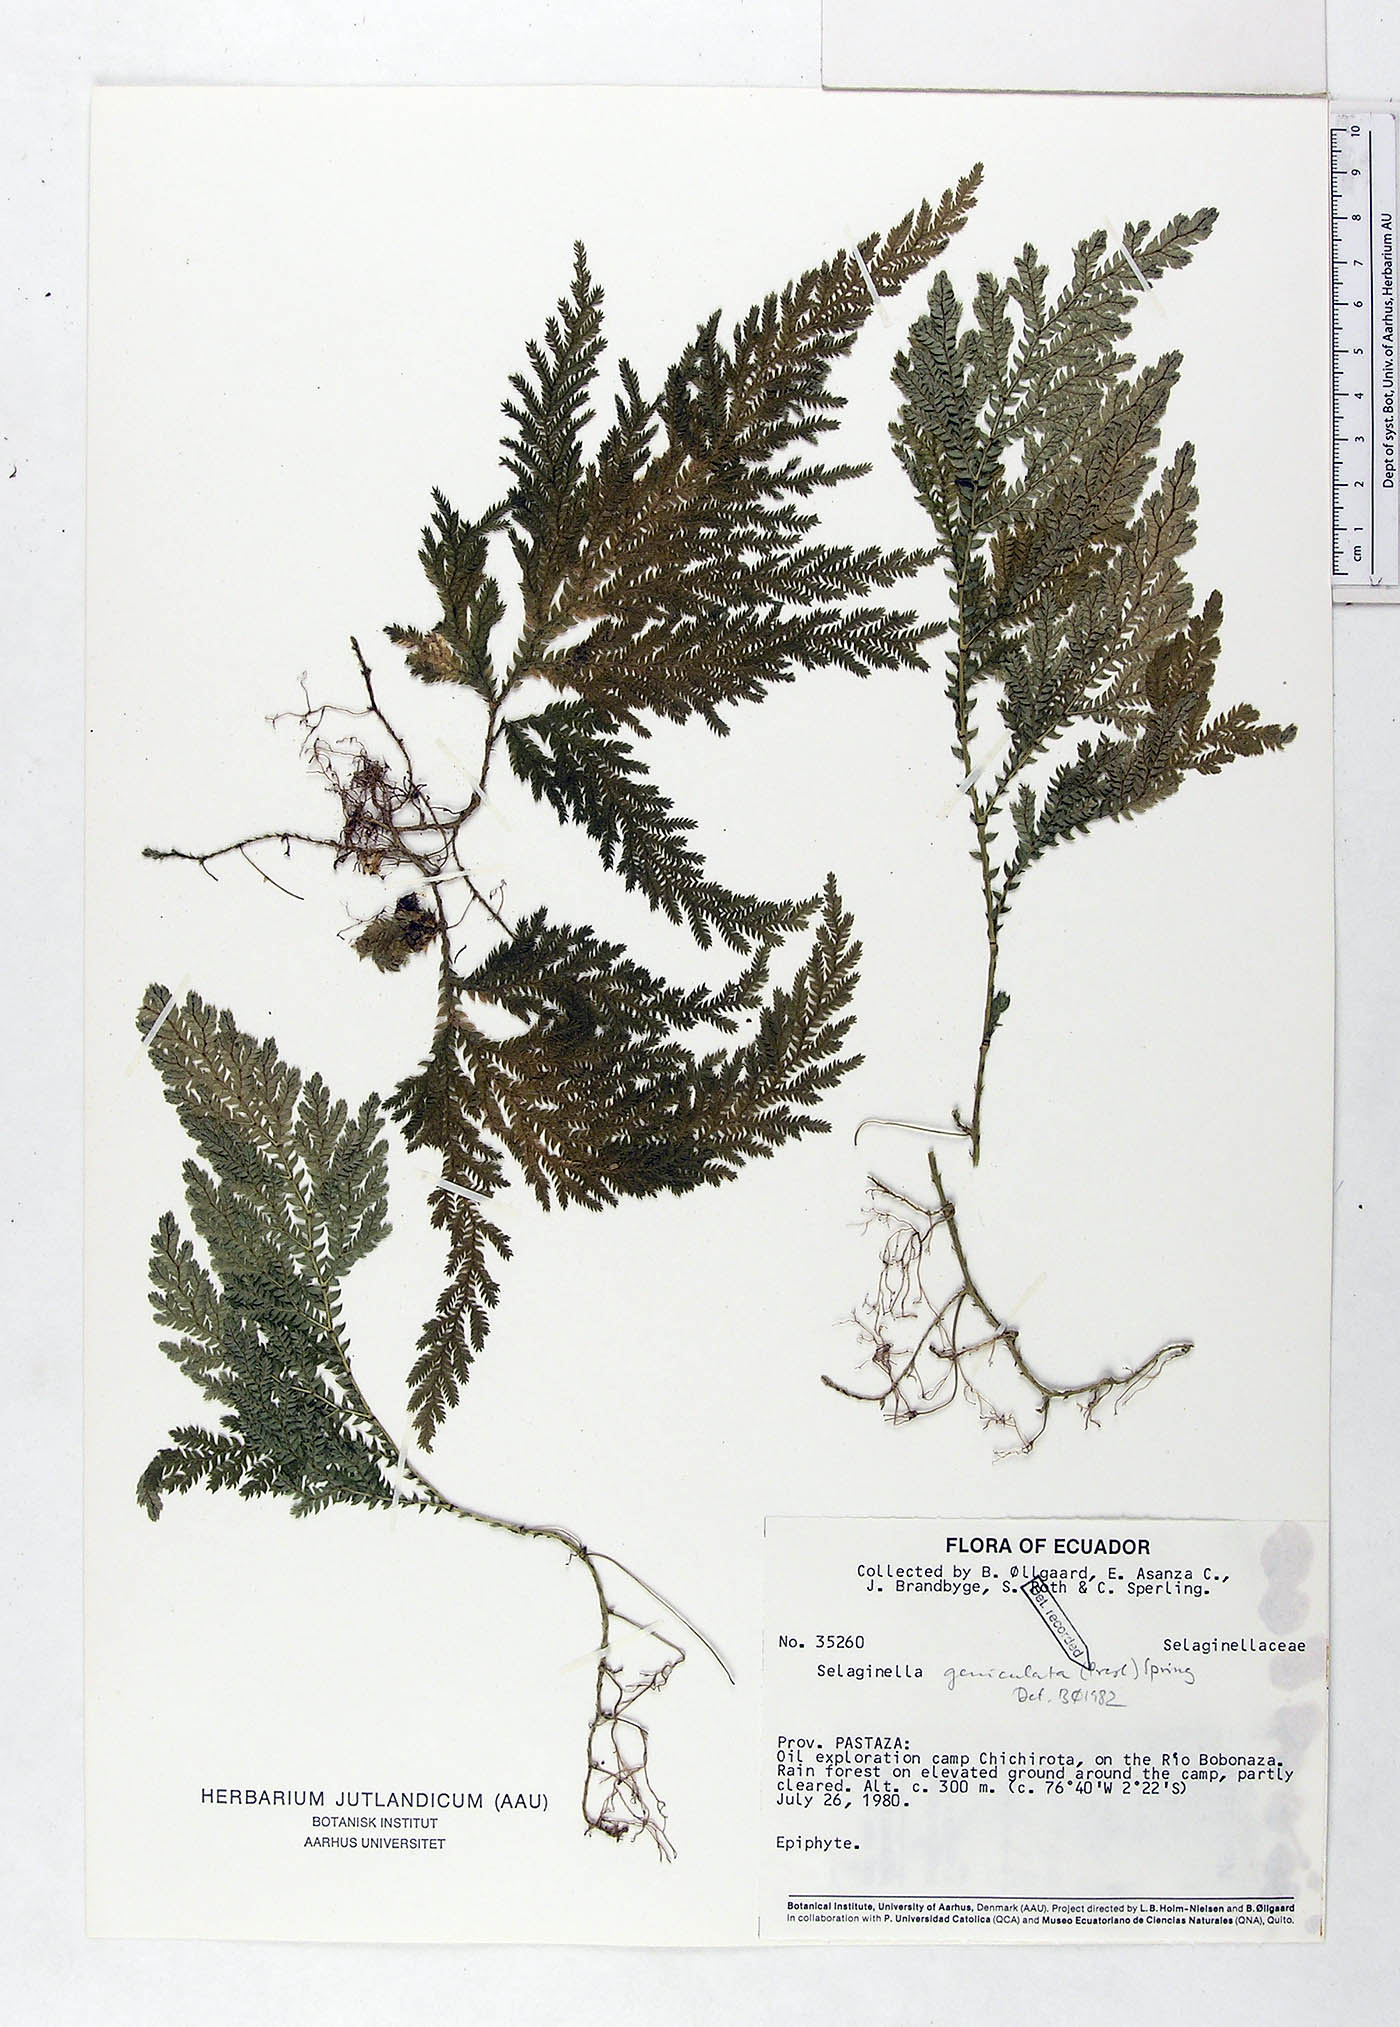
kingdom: Plantae
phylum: Tracheophyta
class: Lycopodiopsida
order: Selaginellales
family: Selaginellaceae
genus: Selaginella
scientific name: Selaginella geniculata
